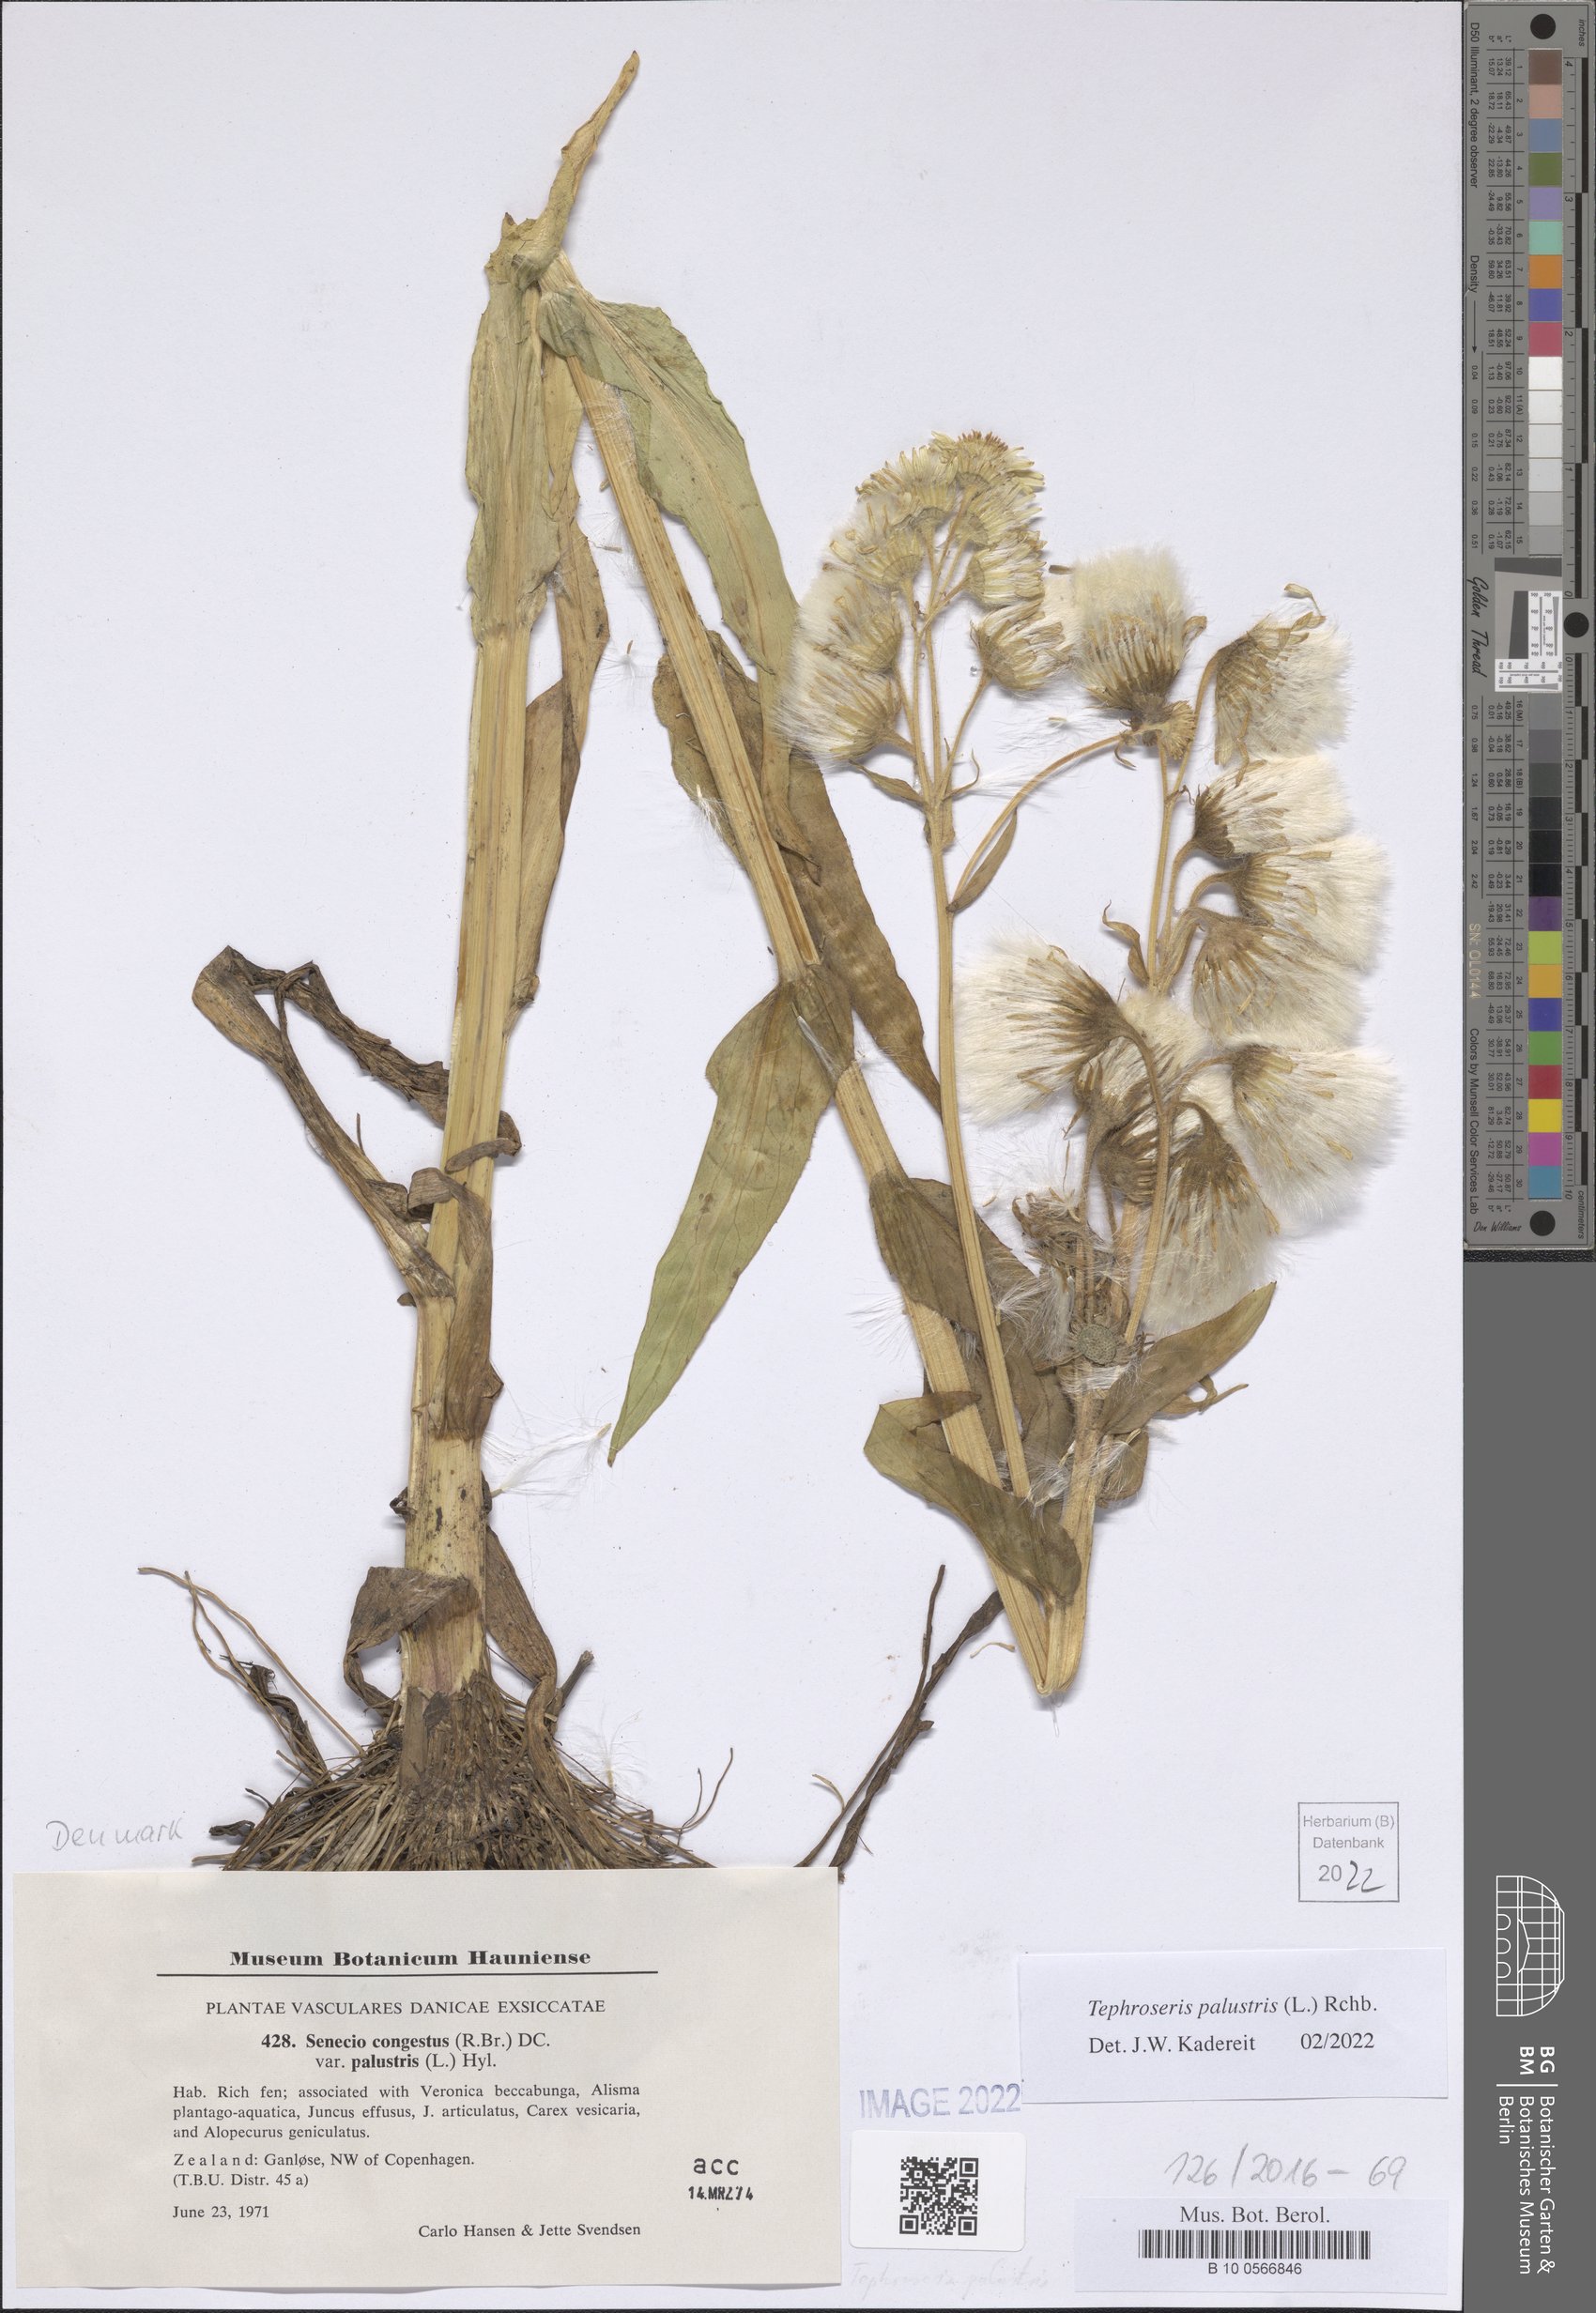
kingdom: Plantae
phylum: Tracheophyta
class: Magnoliopsida
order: Asterales
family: Asteraceae
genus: Tephroseris
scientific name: Tephroseris palustris
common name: Marsh fleawort
